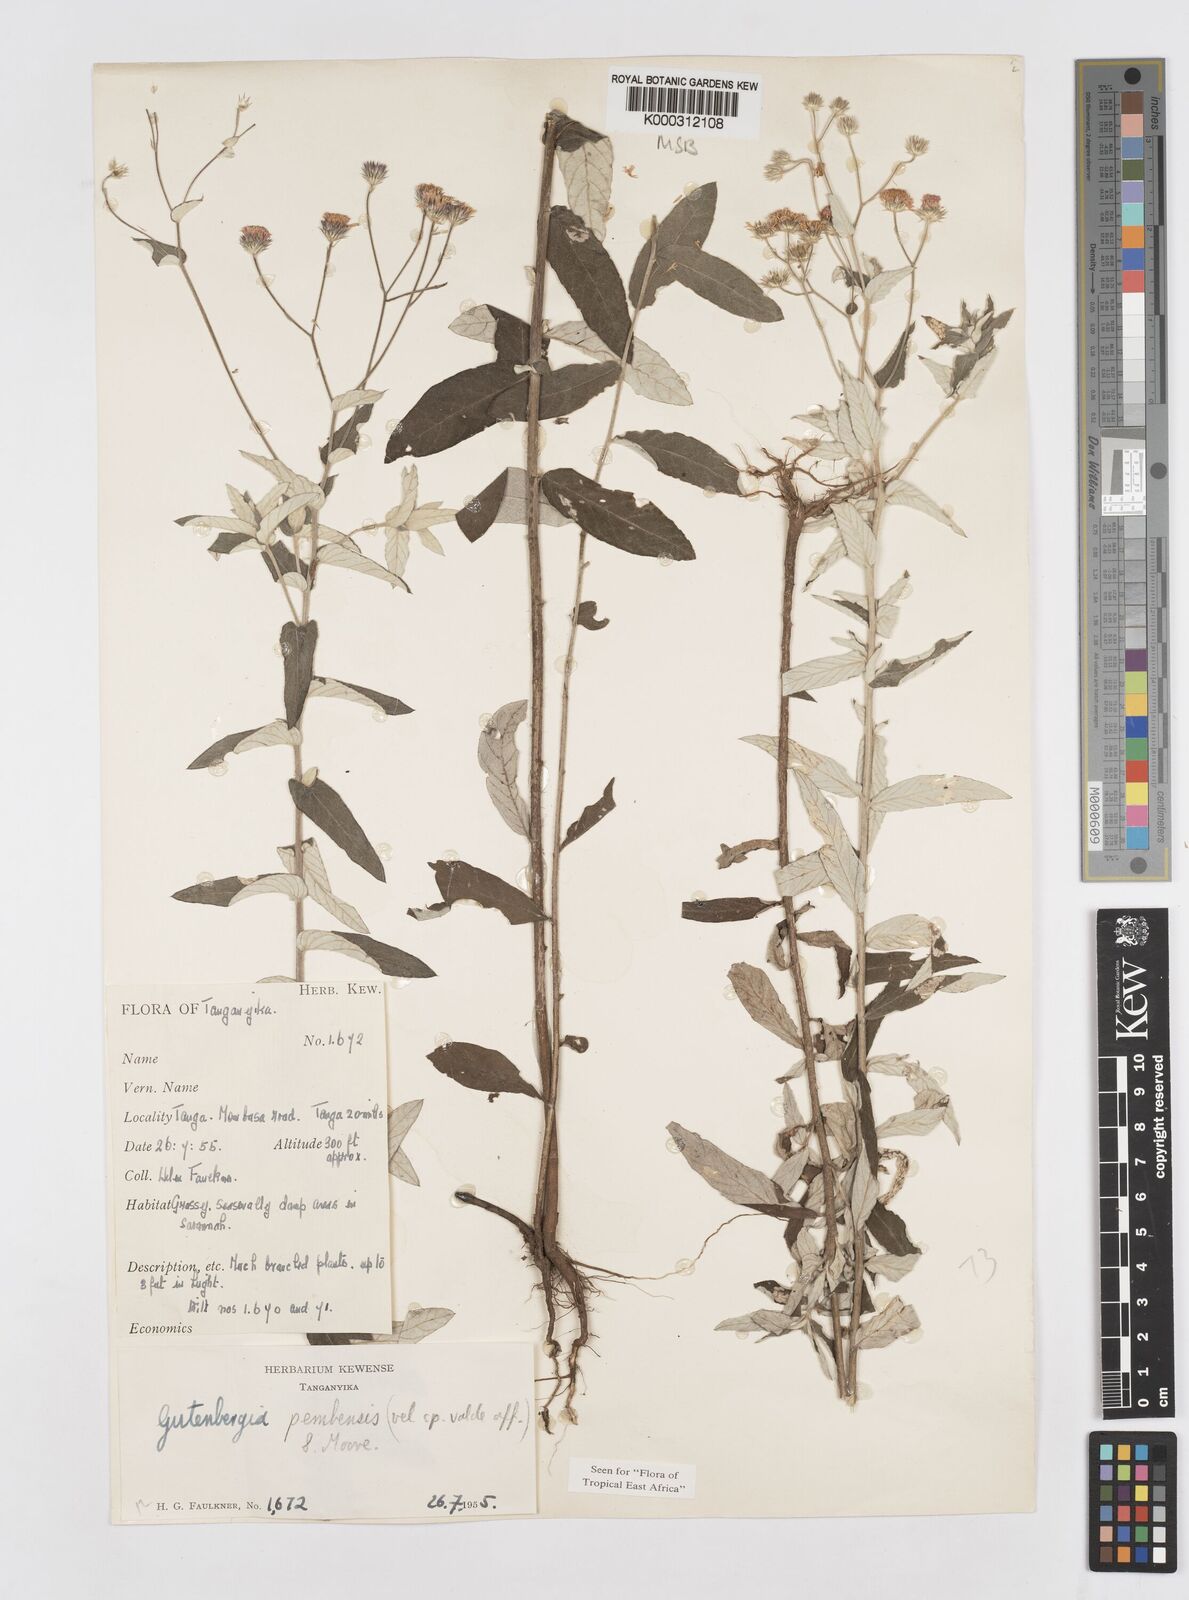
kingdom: Plantae
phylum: Tracheophyta
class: Magnoliopsida
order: Asterales
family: Asteraceae
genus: Gutenbergia
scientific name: Gutenbergia pembensis
